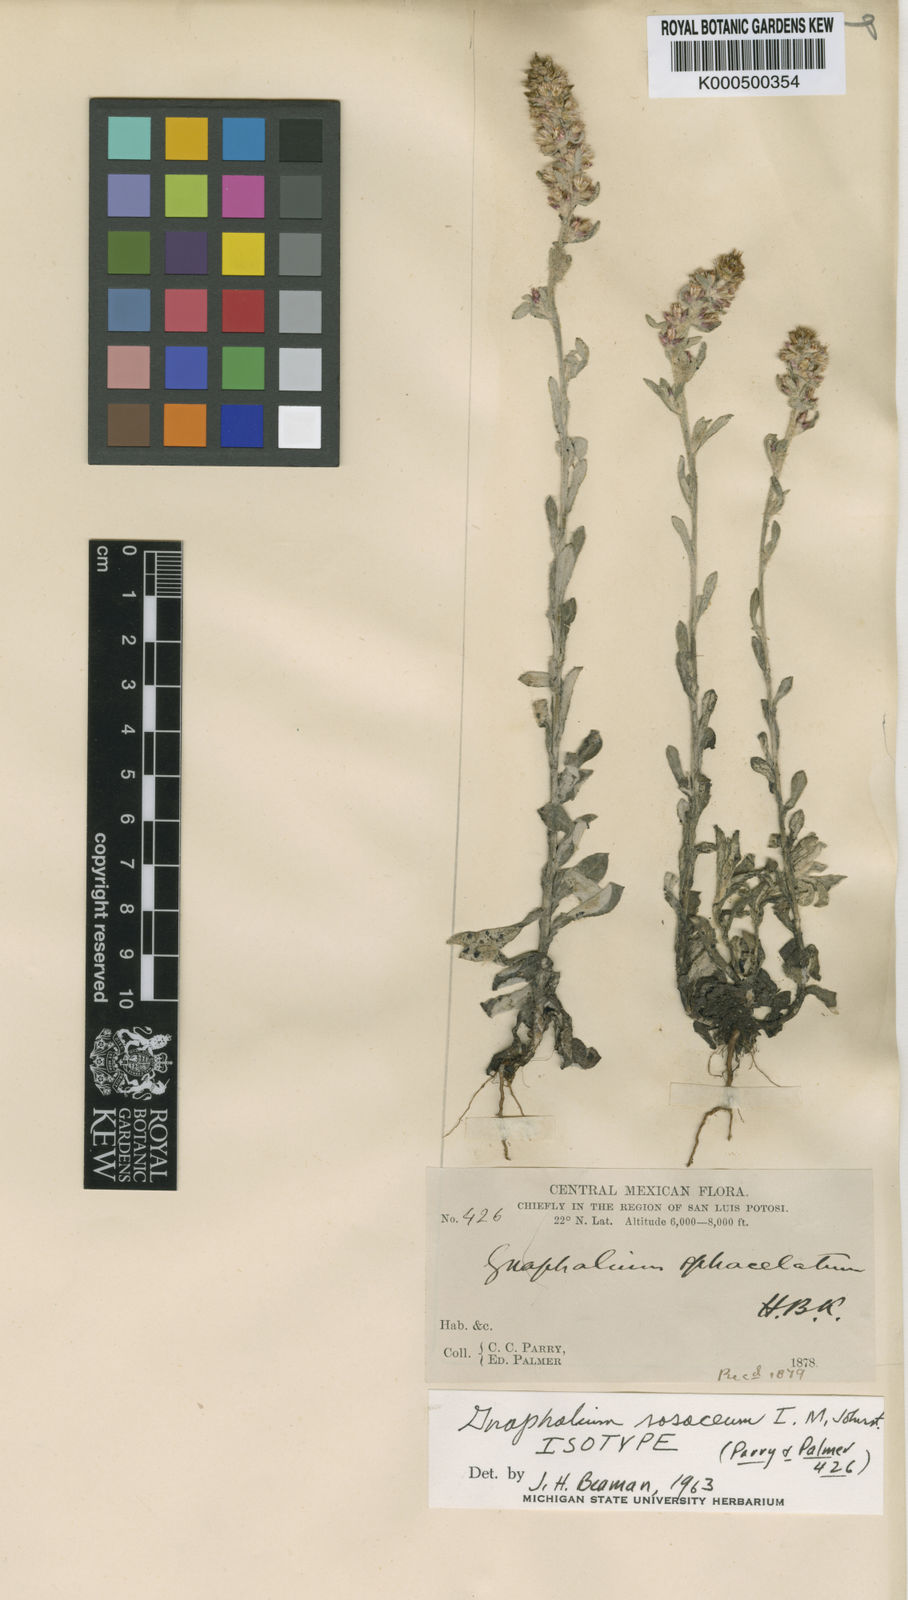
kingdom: Plantae
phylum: Tracheophyta
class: Magnoliopsida
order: Asterales
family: Asteraceae
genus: Gamochaeta
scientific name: Gamochaeta purpurea
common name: Purple cudweed
